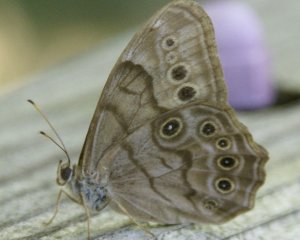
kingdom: Animalia
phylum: Arthropoda
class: Insecta
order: Lepidoptera
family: Nymphalidae
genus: Lethe
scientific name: Lethe anthedon
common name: Northern Pearly-Eye
